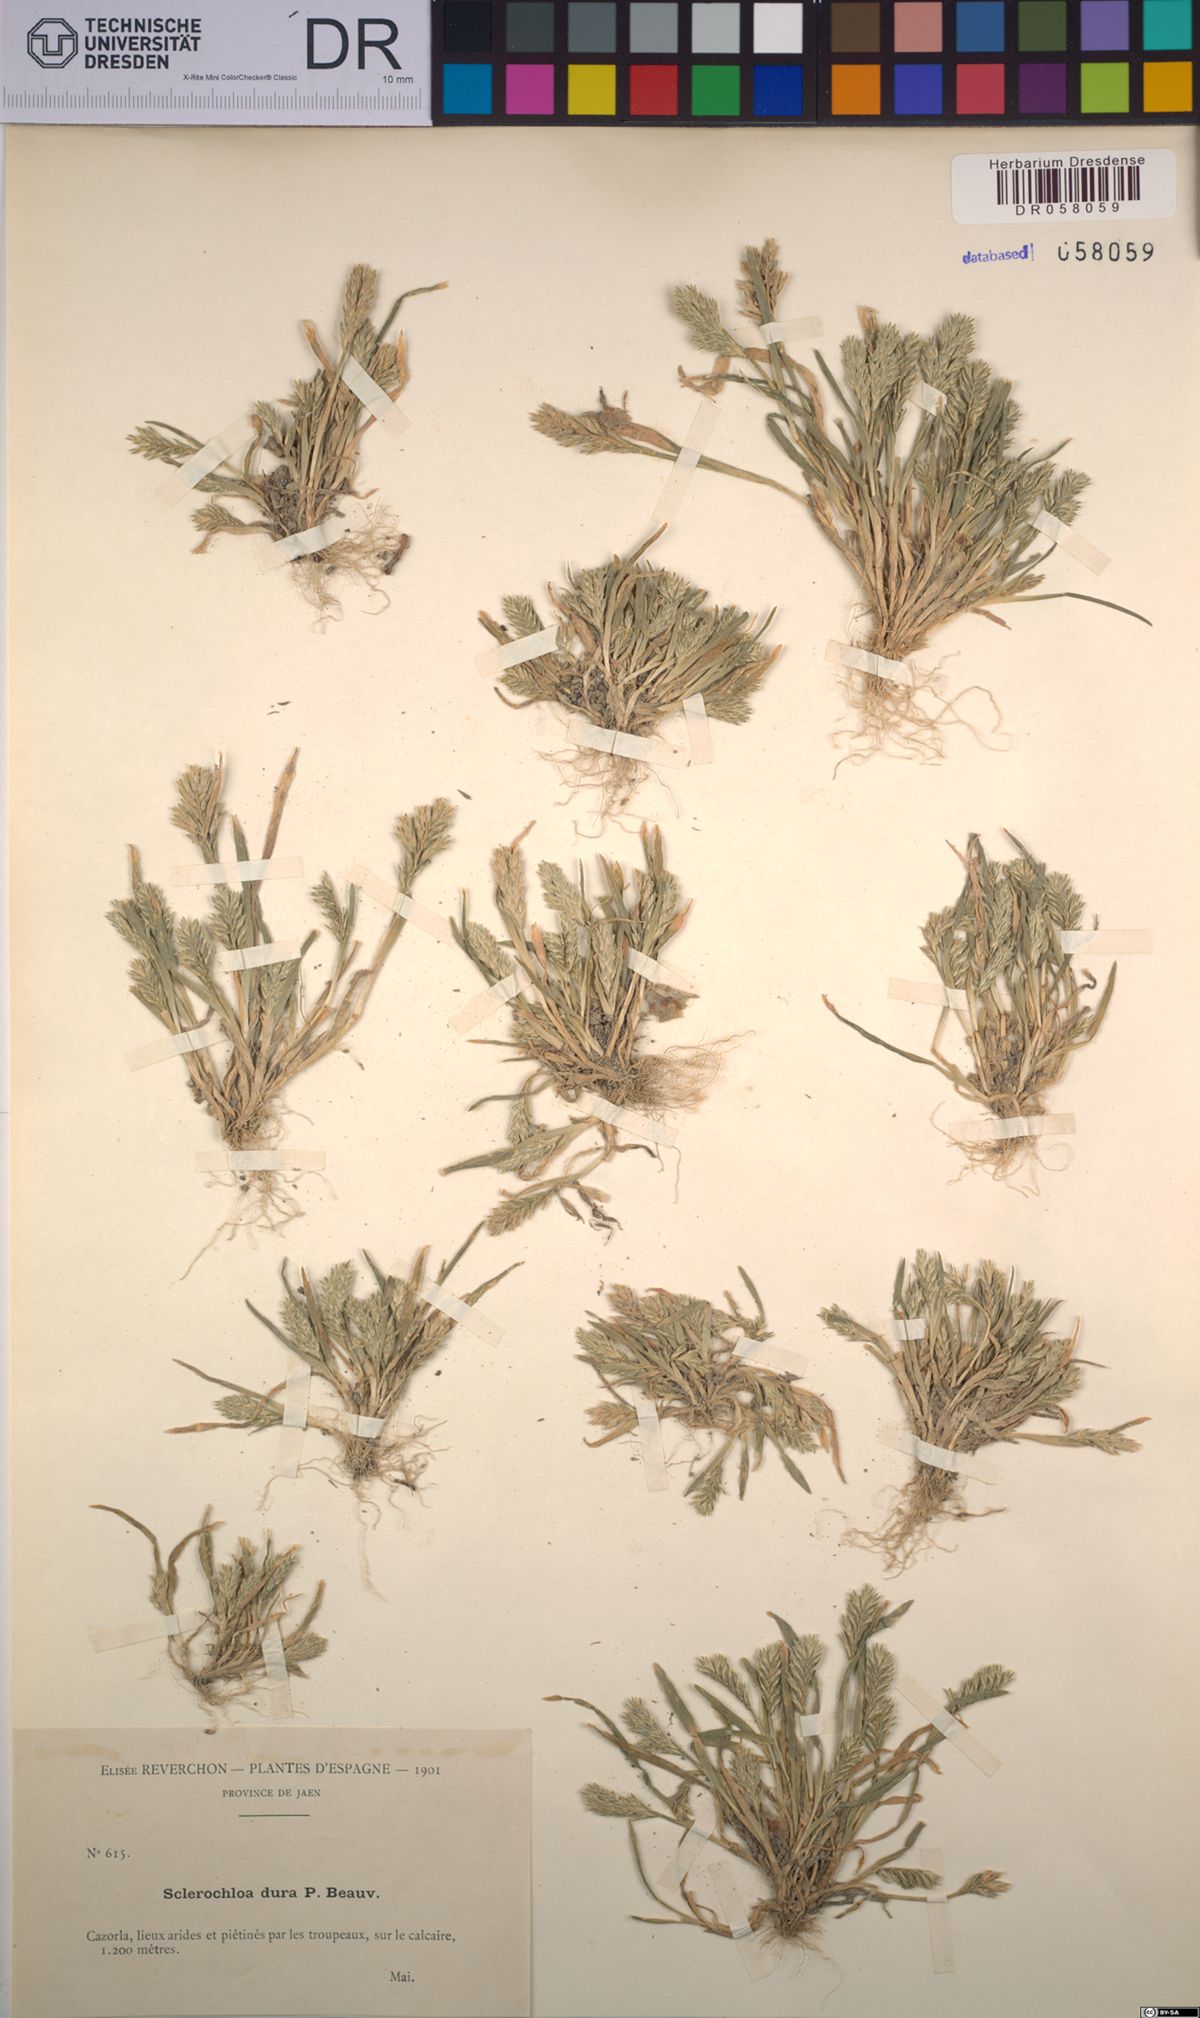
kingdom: Plantae
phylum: Tracheophyta
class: Liliopsida
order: Poales
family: Poaceae
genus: Sclerochloa
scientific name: Sclerochloa dura
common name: Common hardgrass
